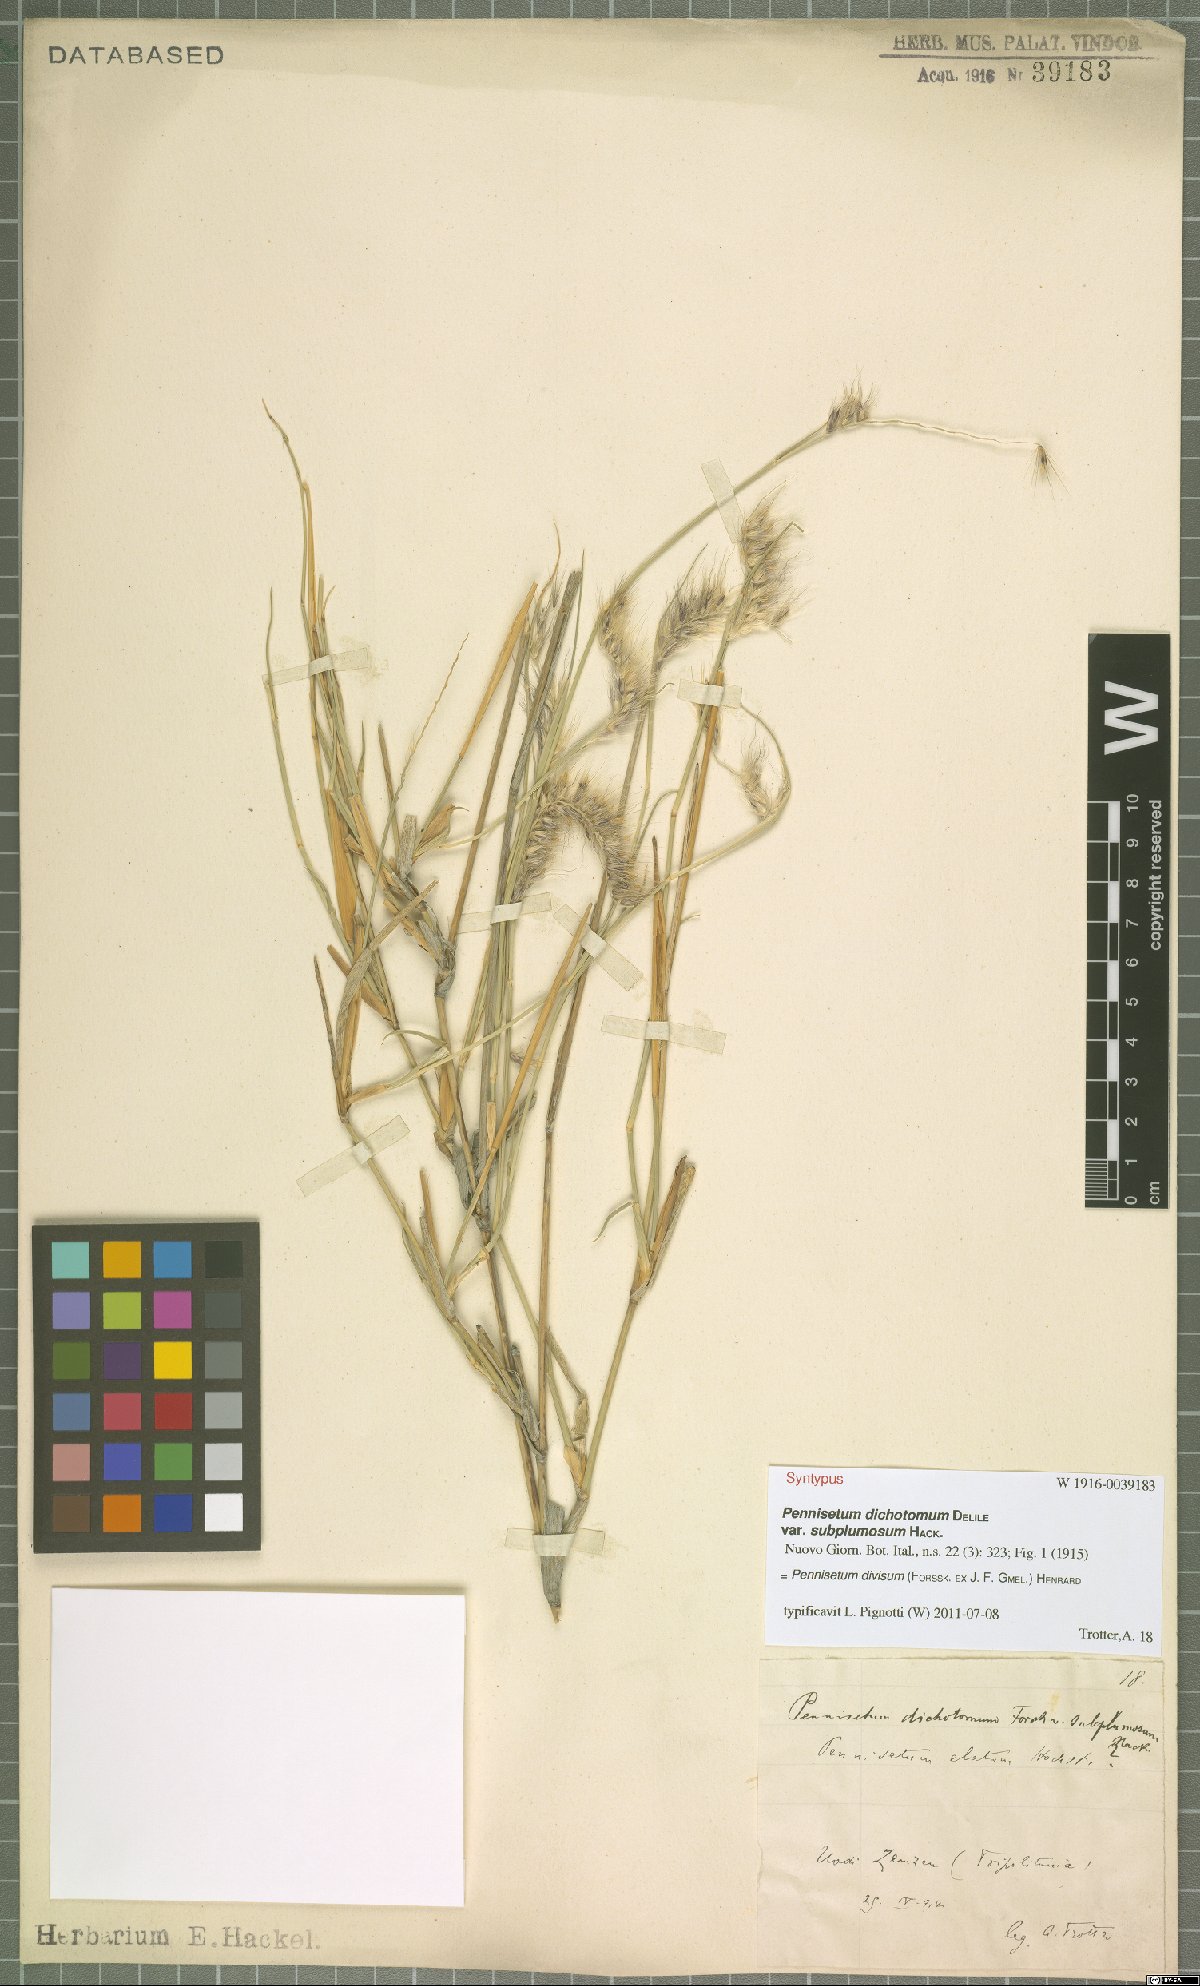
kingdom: Plantae
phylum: Tracheophyta
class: Liliopsida
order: Poales
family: Poaceae
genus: Cenchrus
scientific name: Cenchrus divisus
